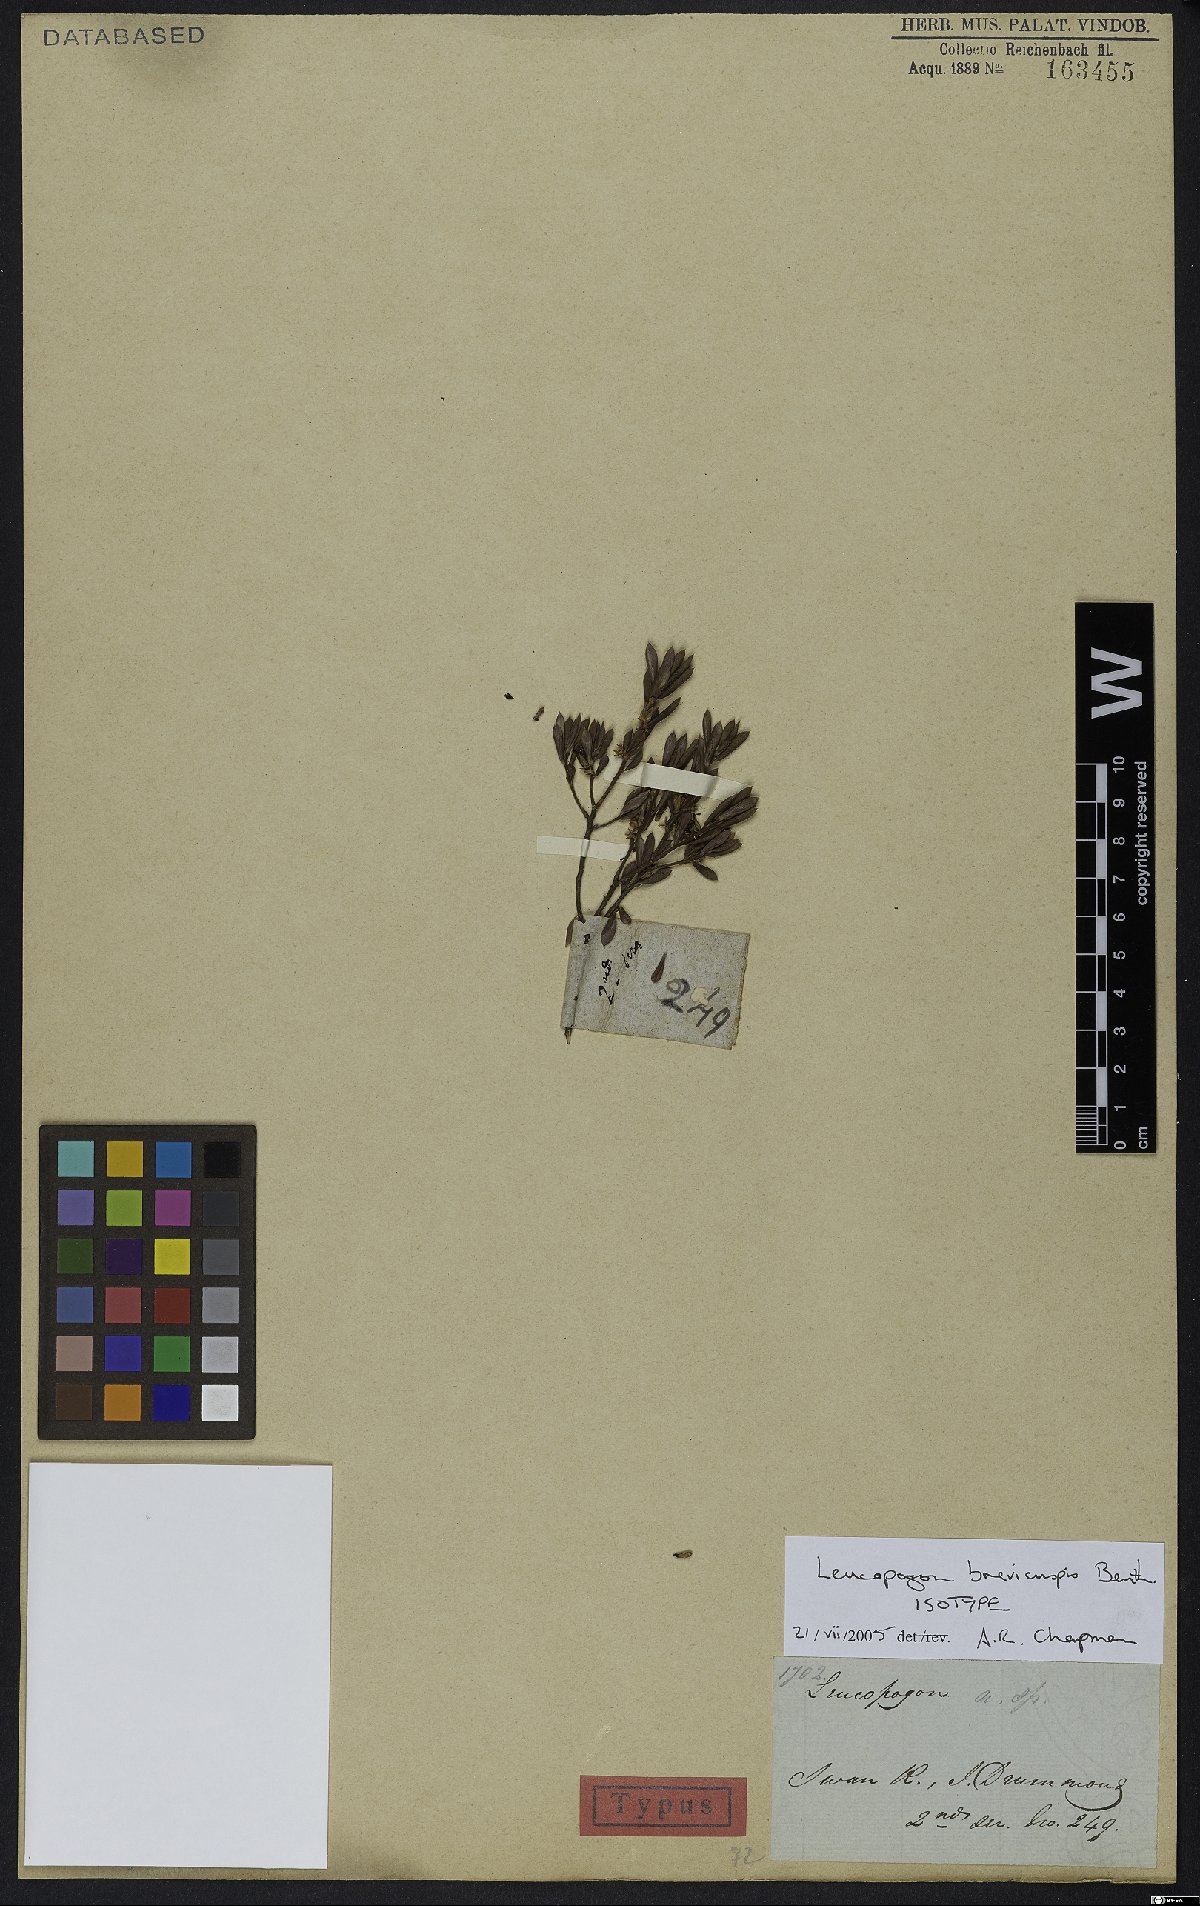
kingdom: Plantae
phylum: Tracheophyta
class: Magnoliopsida
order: Ericales
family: Ericaceae
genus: Styphelia
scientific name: Styphelia brevicuspis
